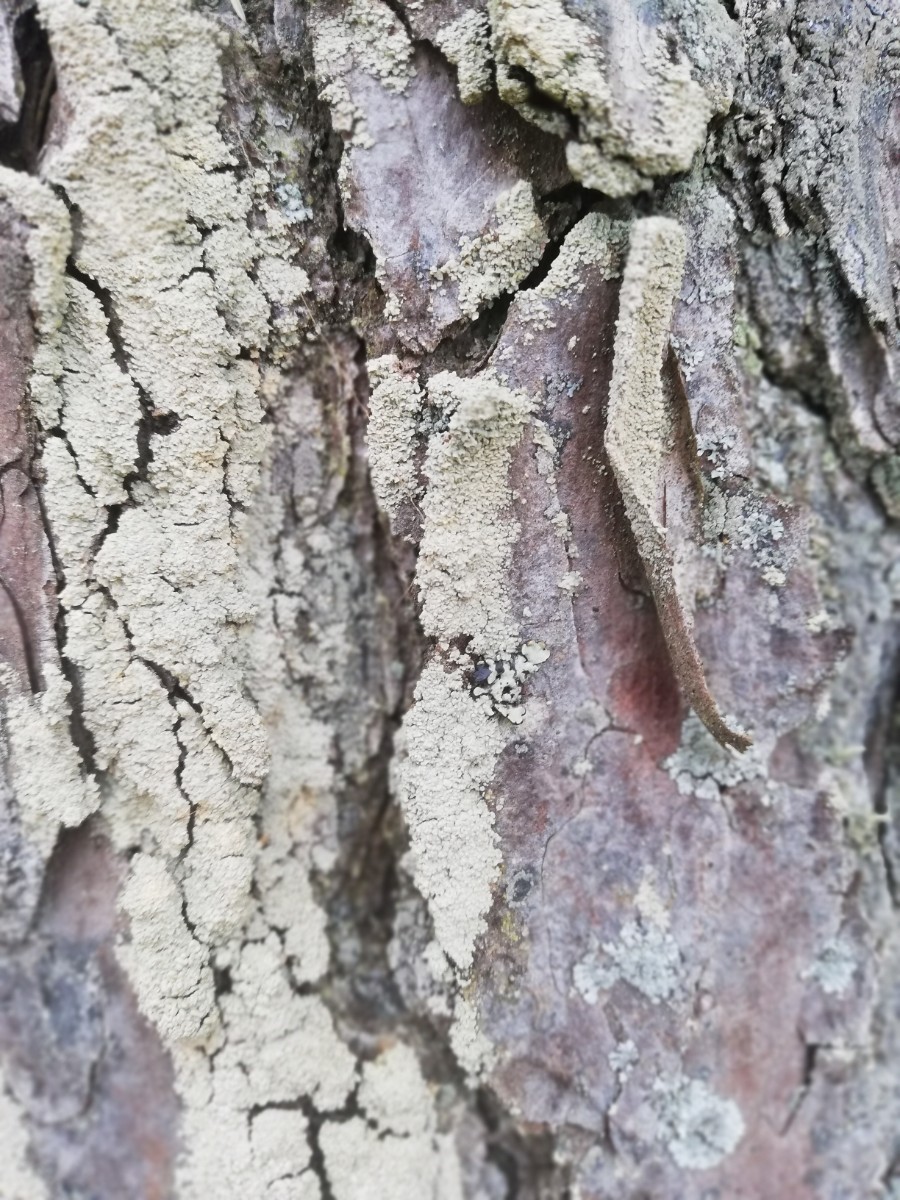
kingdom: Fungi
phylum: Ascomycota
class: Lecanoromycetes
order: Umbilicariales
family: Ophioparmaceae
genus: Hypocenomyce
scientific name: Hypocenomyce scalaris
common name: småskællet muslinglav
